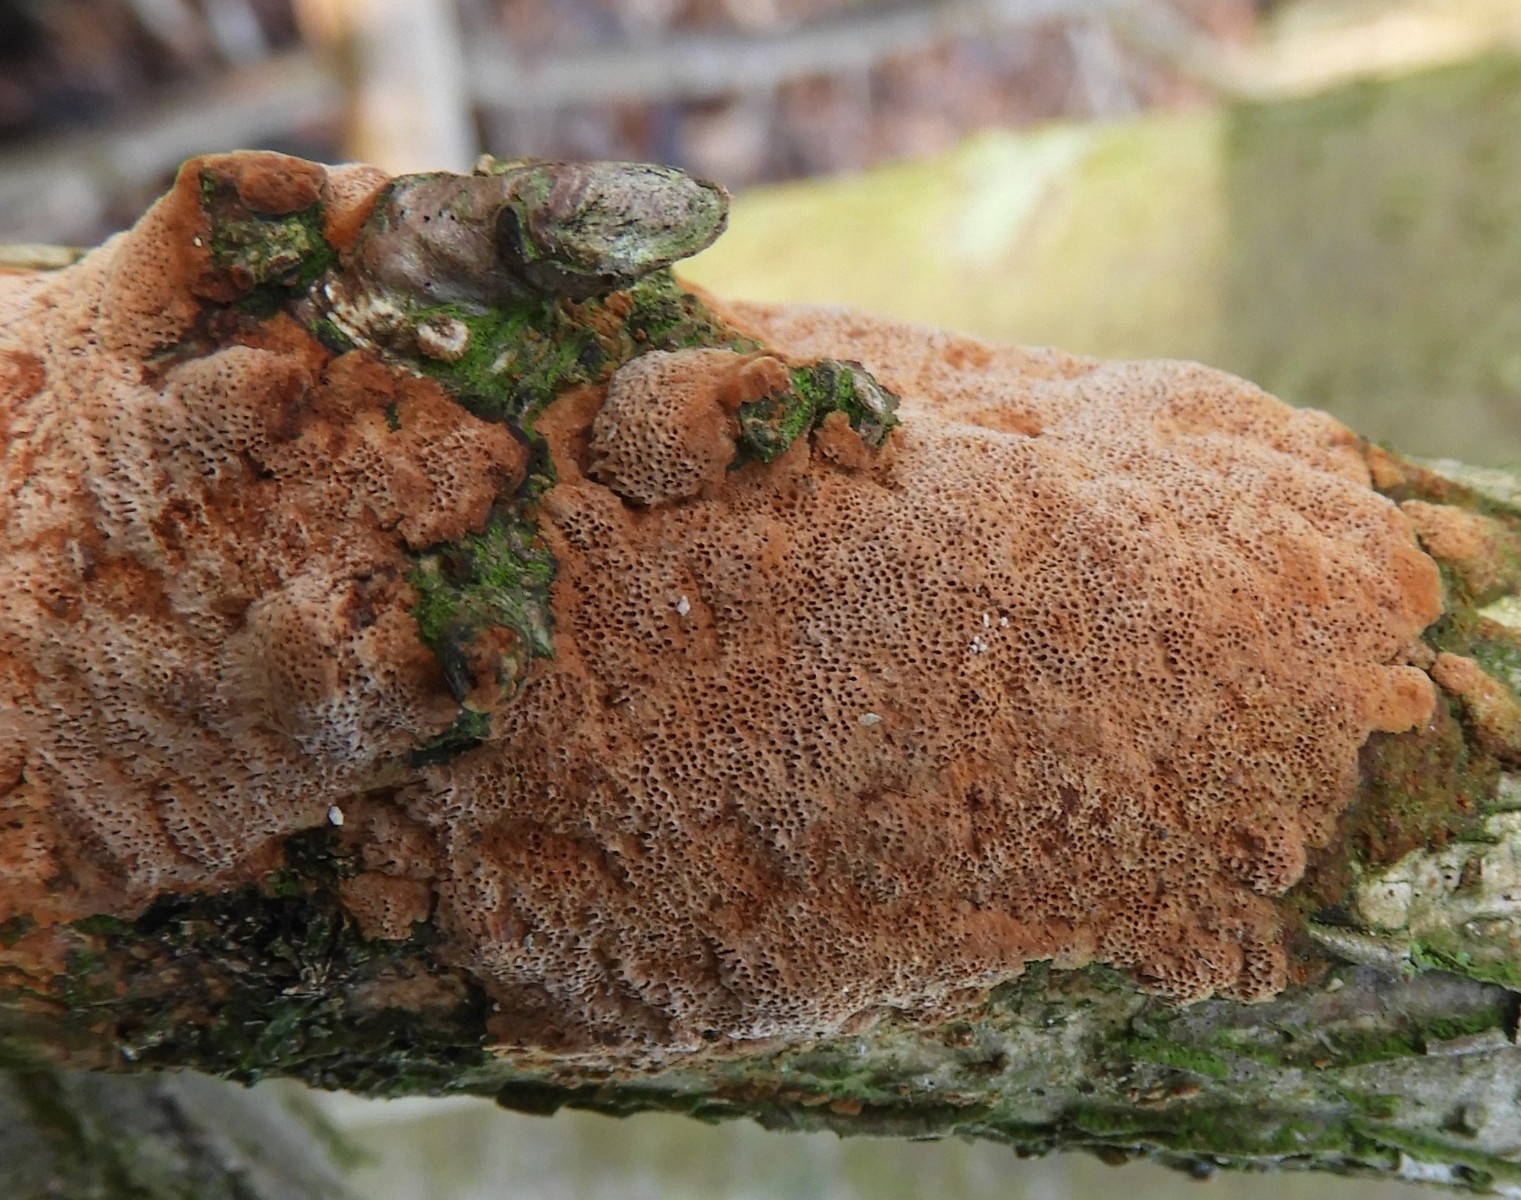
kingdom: Fungi
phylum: Basidiomycota
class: Agaricomycetes
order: Hymenochaetales
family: Hymenochaetaceae
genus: Fuscoporia
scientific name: Fuscoporia ferrea
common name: skorpe-ildporesvamp
